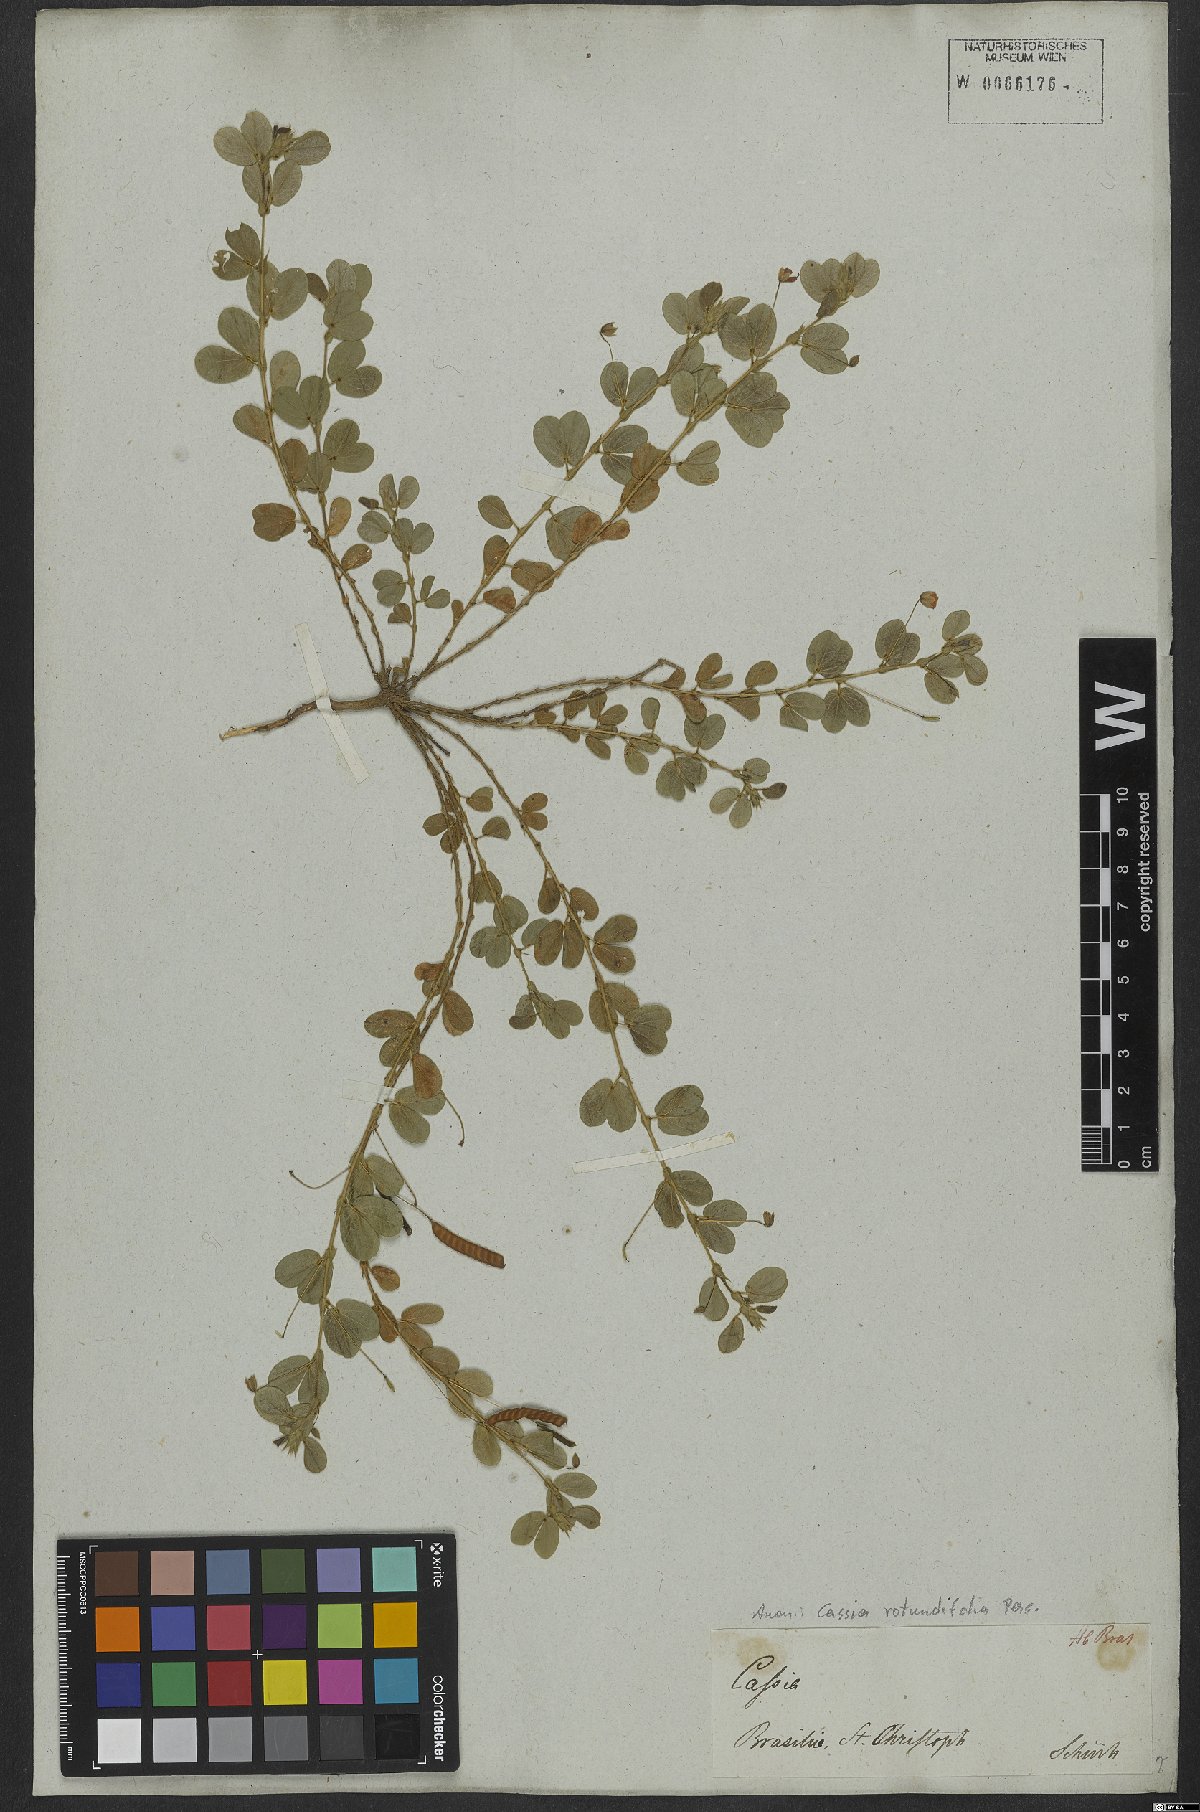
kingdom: Plantae
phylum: Tracheophyta
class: Magnoliopsida
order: Fabales
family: Fabaceae
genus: Chamaecrista
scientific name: Chamaecrista rotundifolia
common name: Round-leaf cassia
